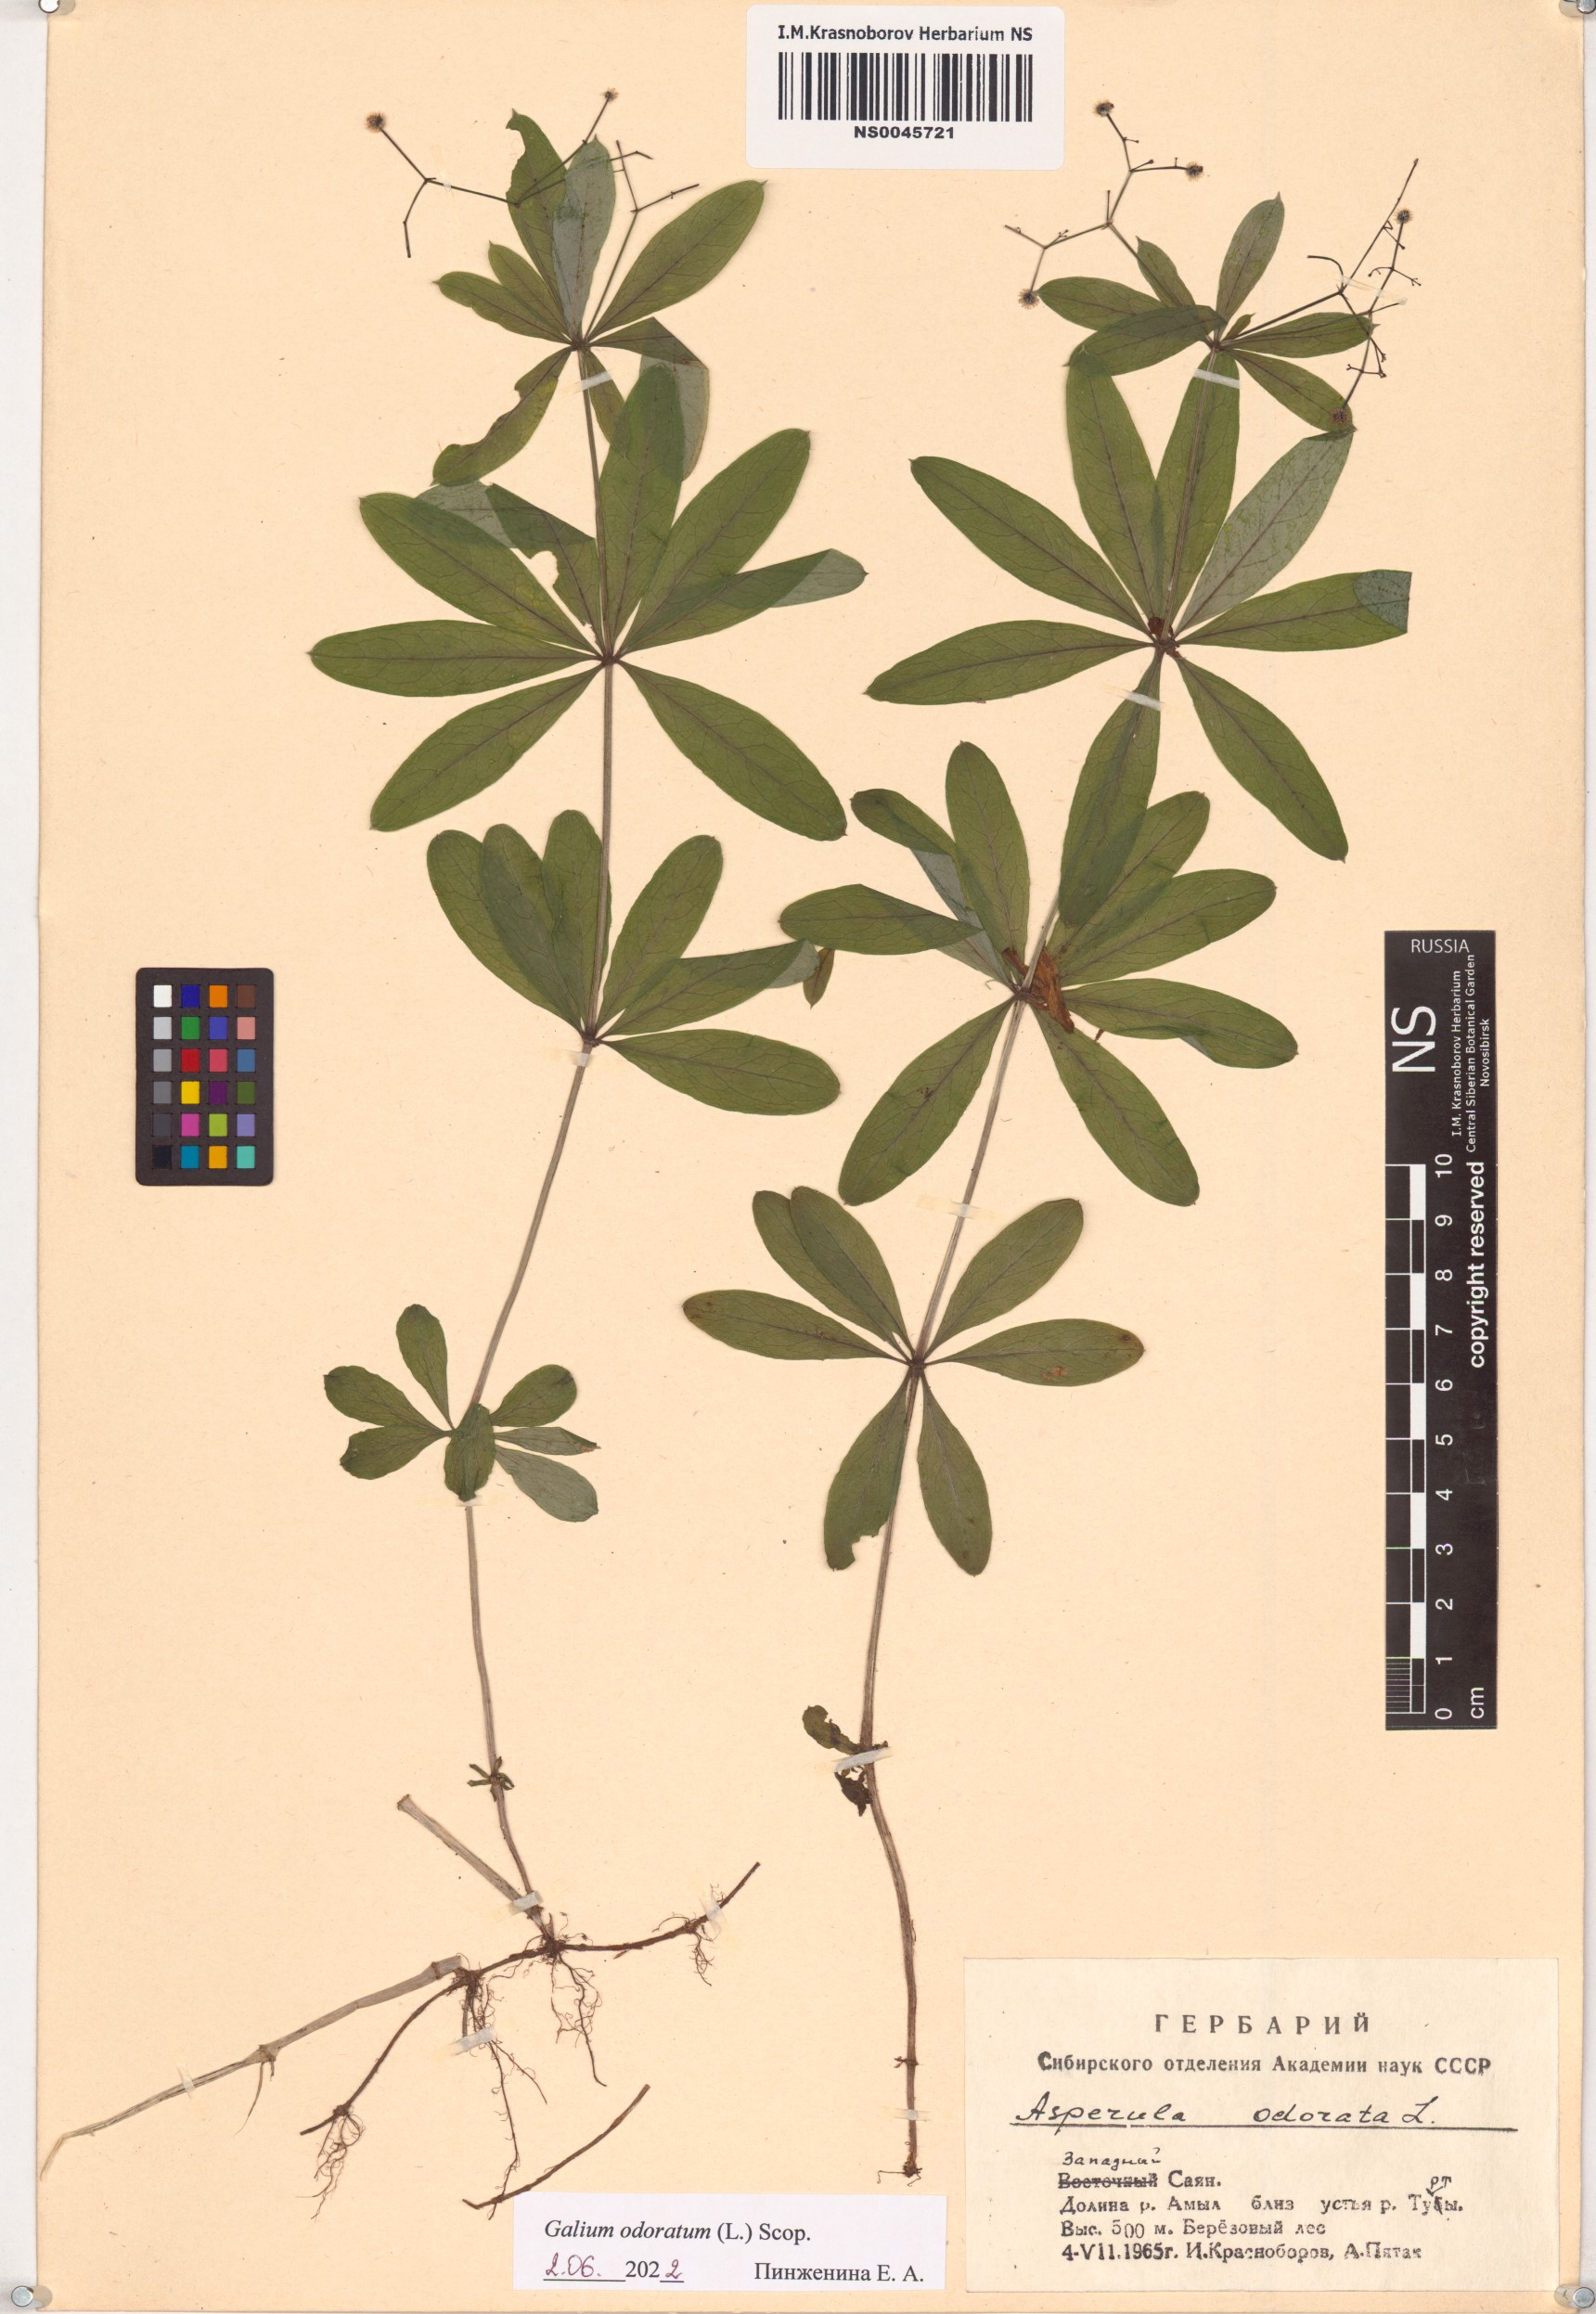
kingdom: Plantae
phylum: Tracheophyta
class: Magnoliopsida
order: Gentianales
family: Rubiaceae
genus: Galium
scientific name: Galium odoratum
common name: Sweet woodruff
